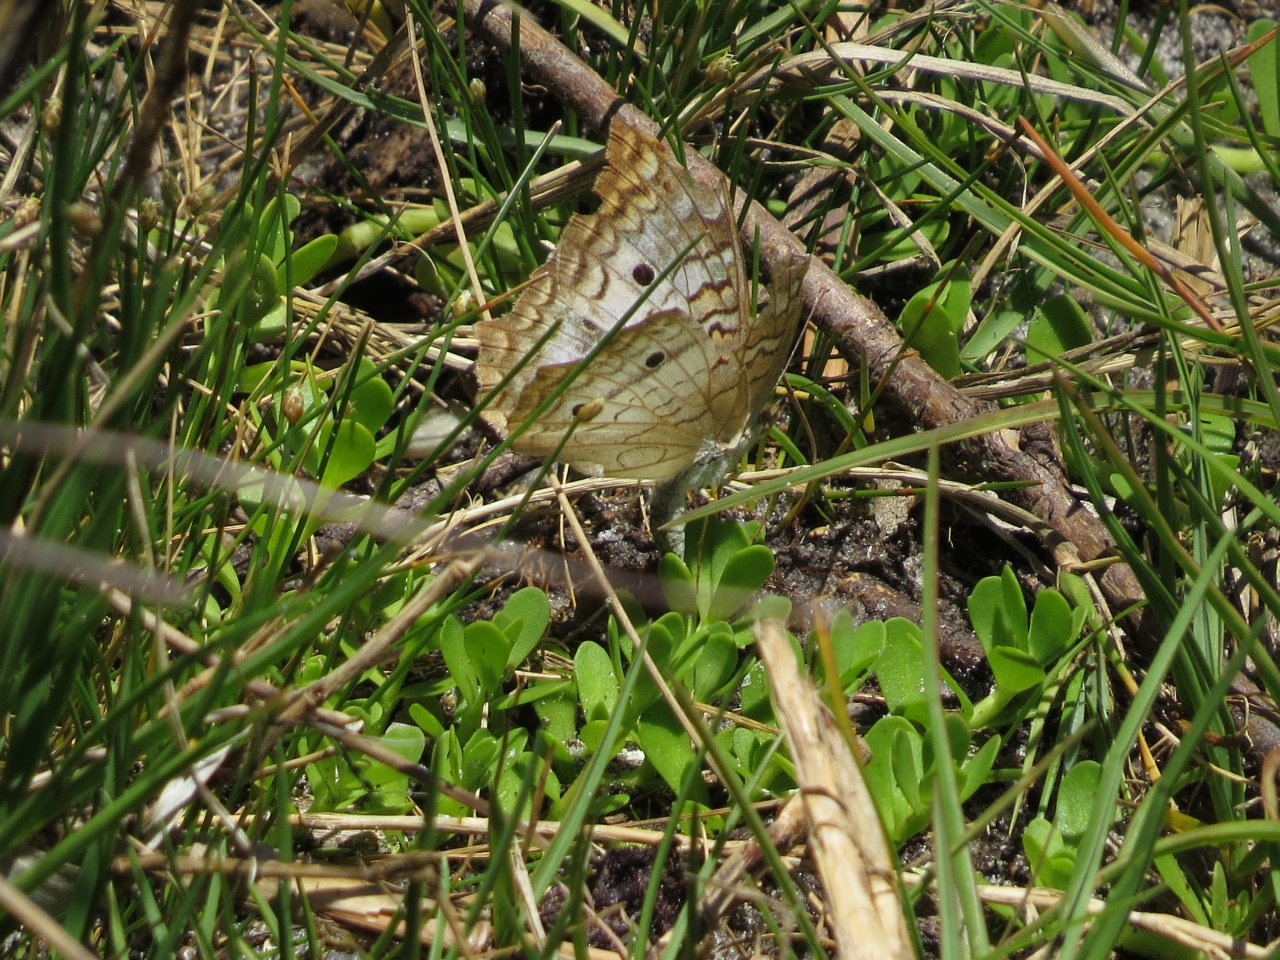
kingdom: Animalia
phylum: Arthropoda
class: Insecta
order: Lepidoptera
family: Nymphalidae
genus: Anartia
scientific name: Anartia jatrophae
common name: White Peacock
